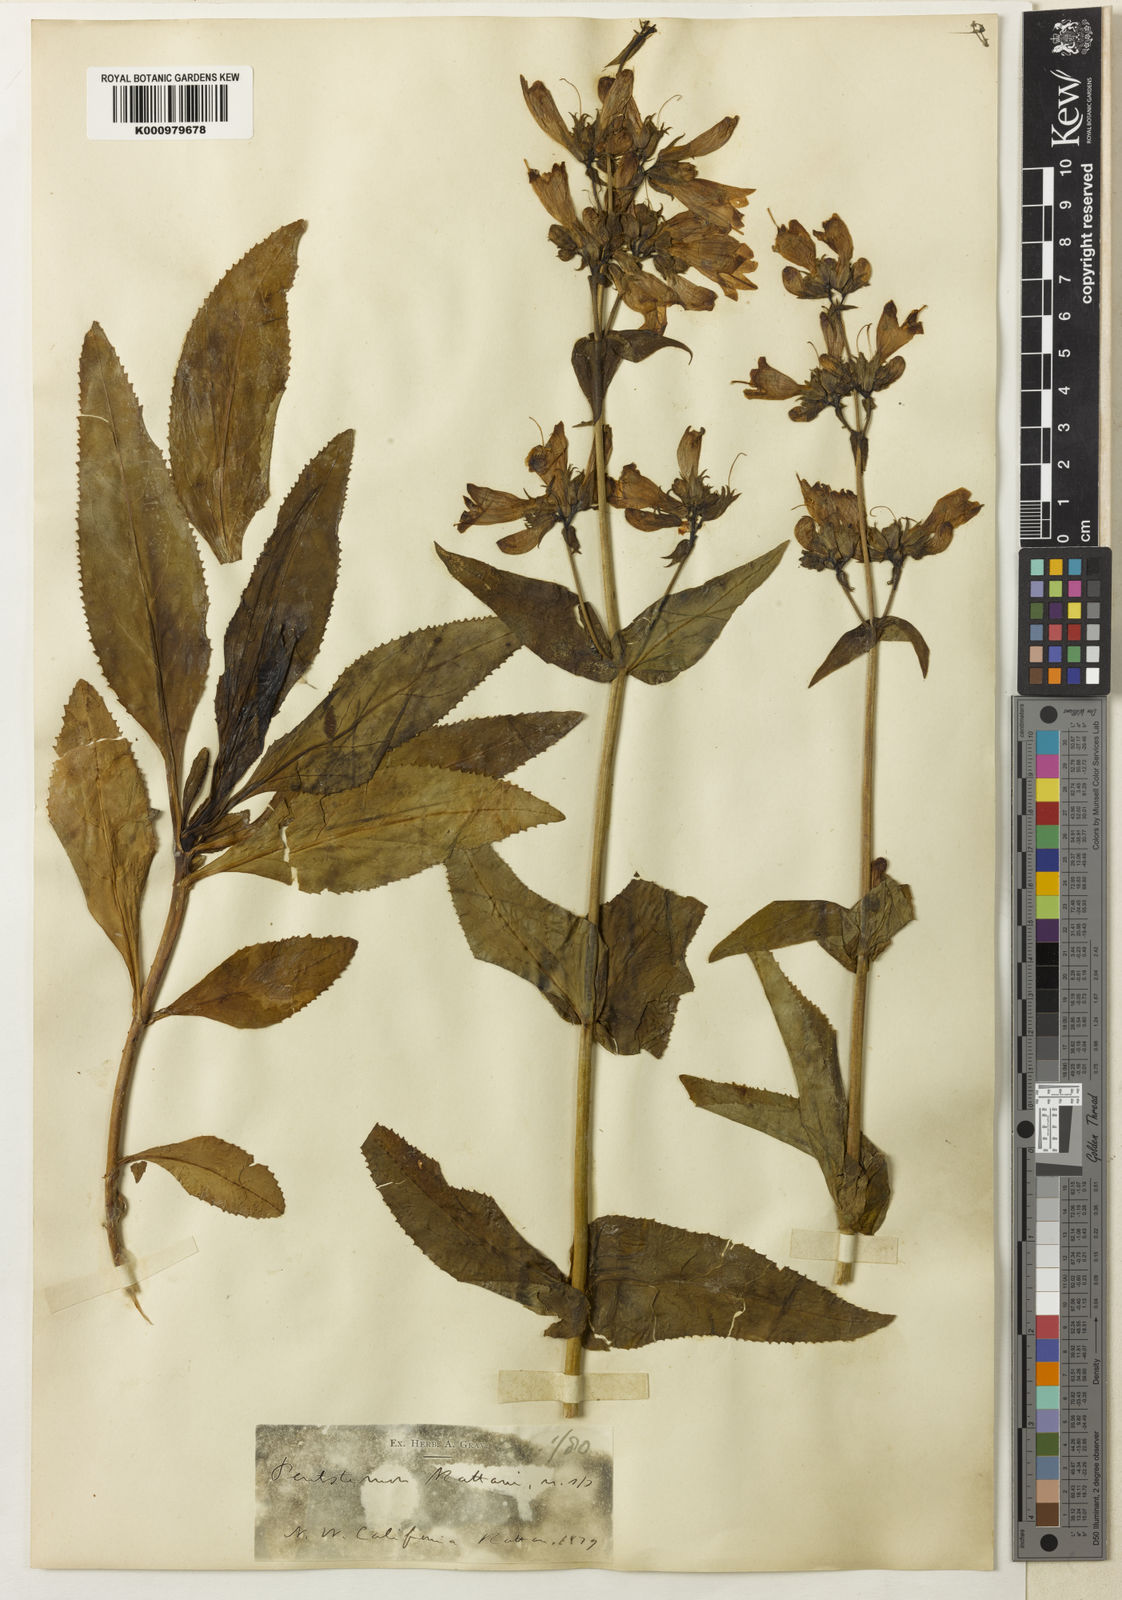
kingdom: Plantae
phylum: Tracheophyta
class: Magnoliopsida
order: Lamiales
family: Plantaginaceae
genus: Penstemon
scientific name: Penstemon
